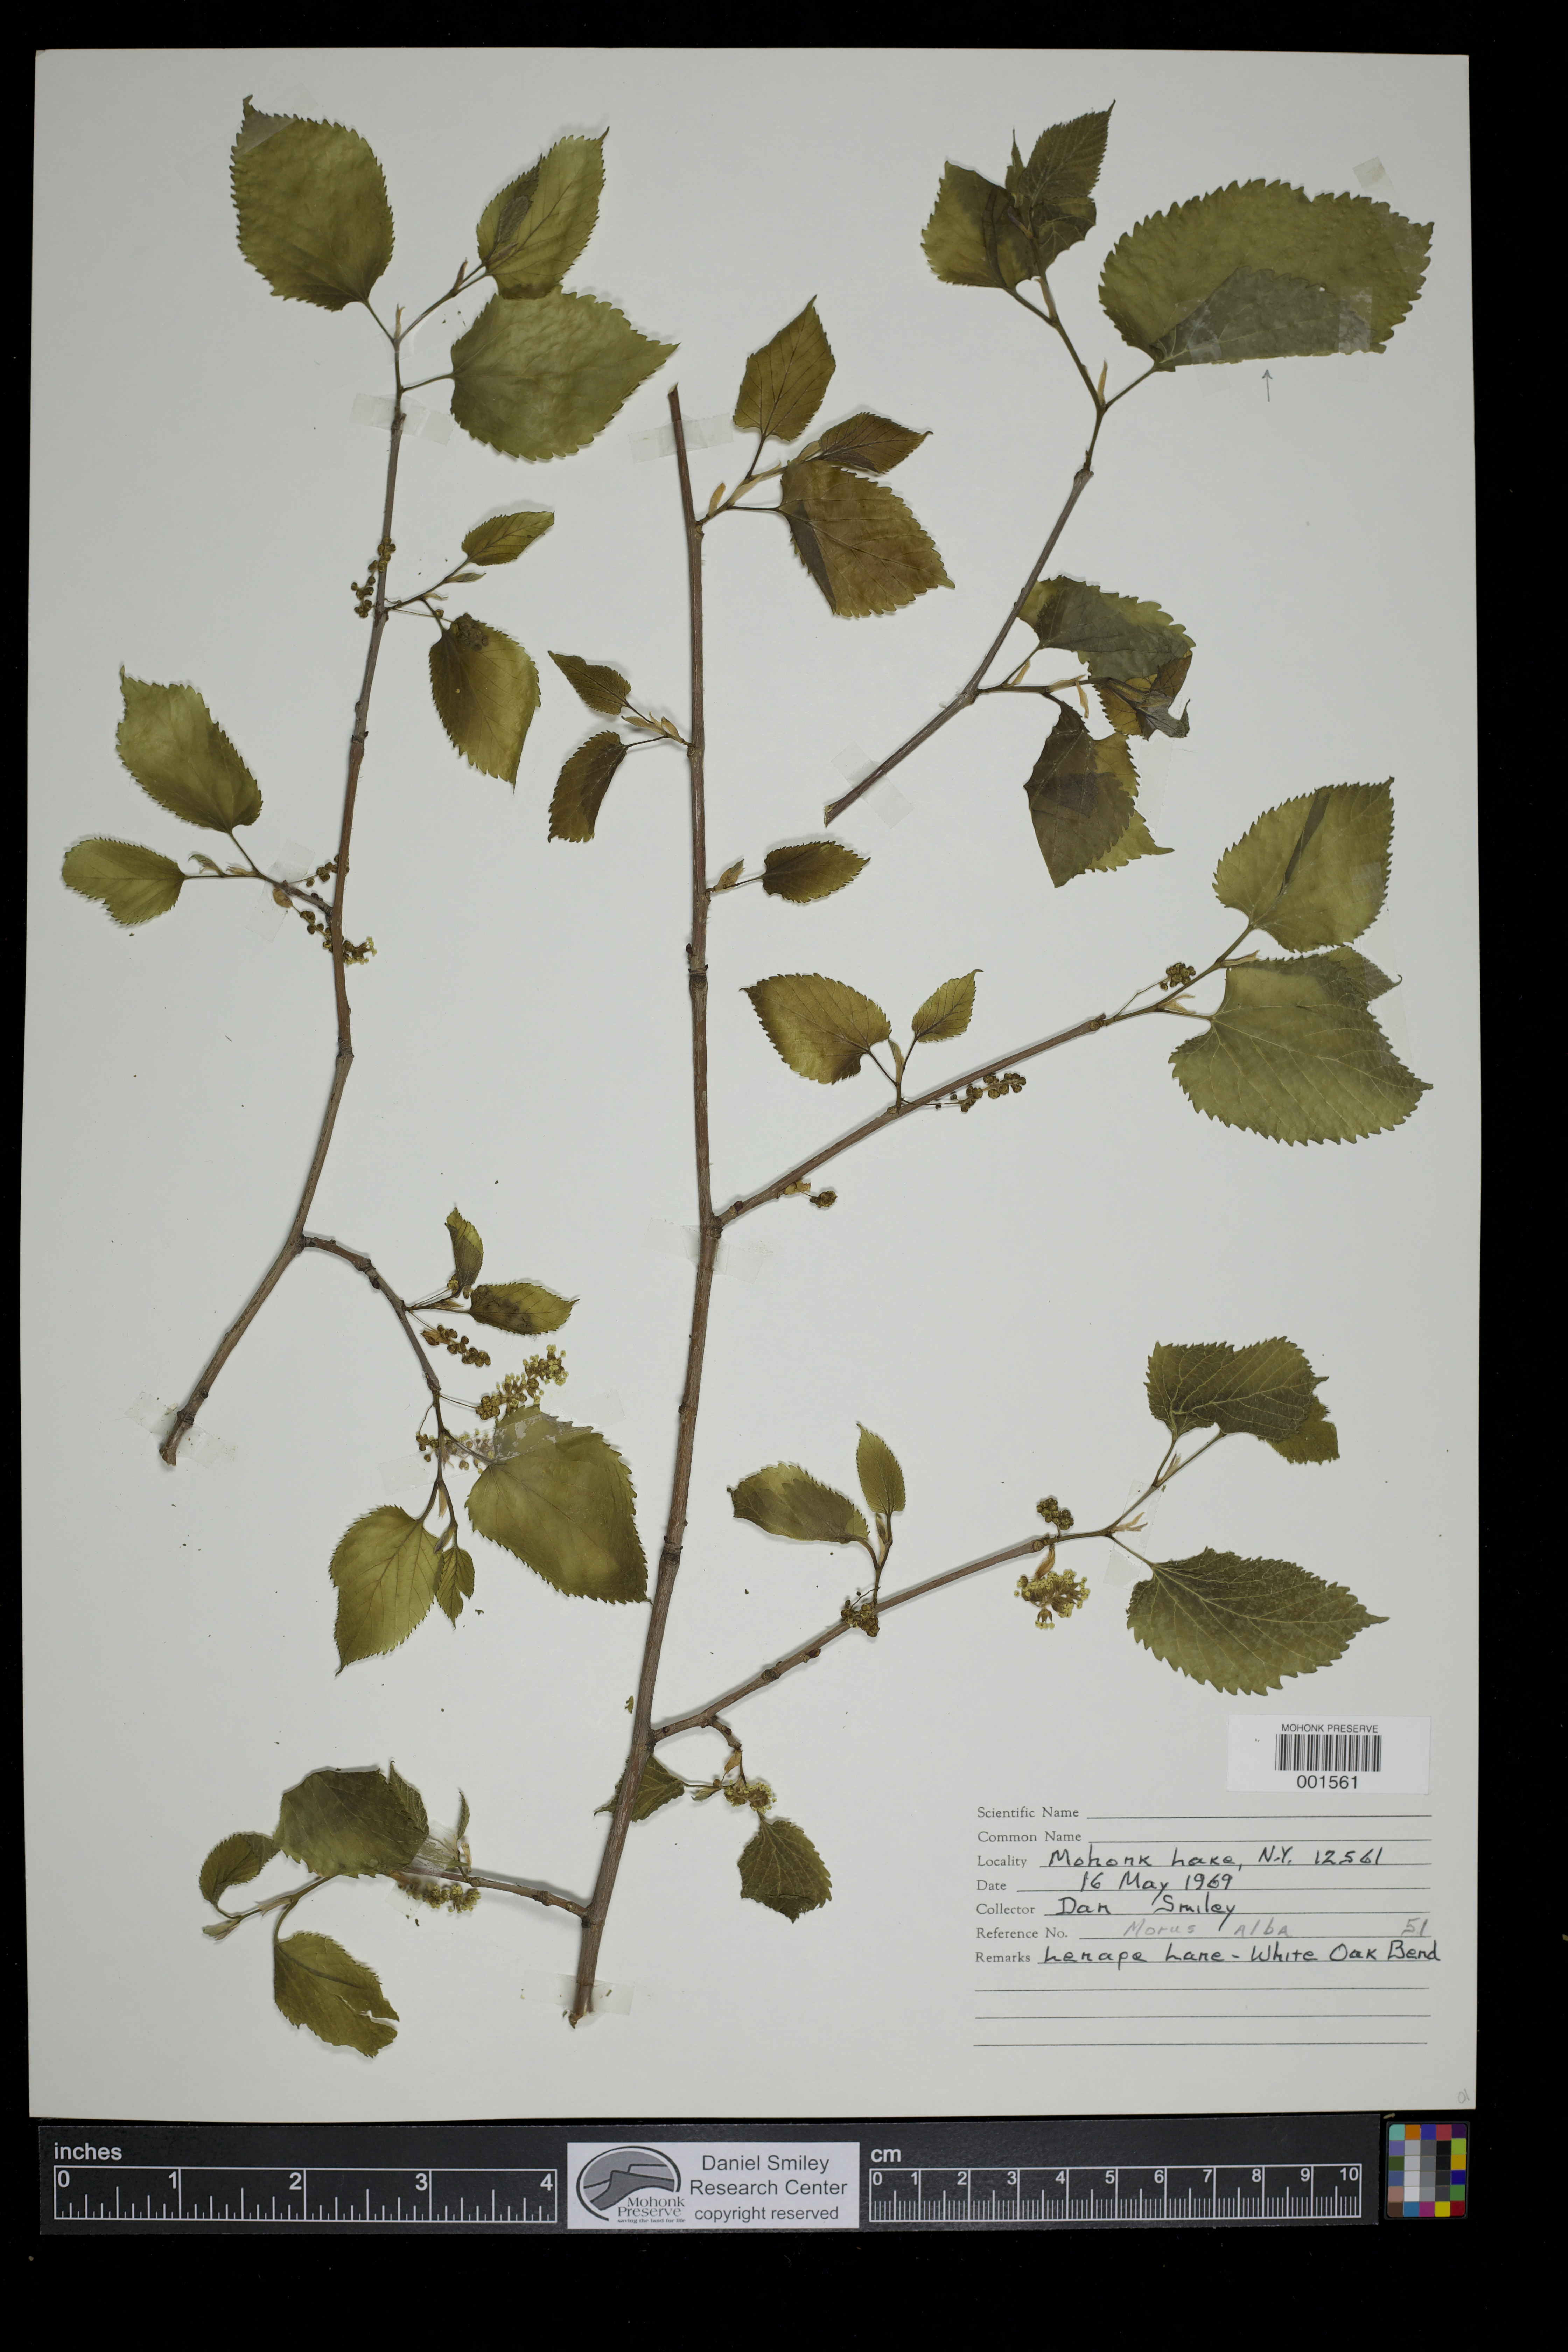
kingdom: Plantae
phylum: Tracheophyta
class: Magnoliopsida
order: Rosales
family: Moraceae
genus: Morus
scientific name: Morus alba
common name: White mulberry
